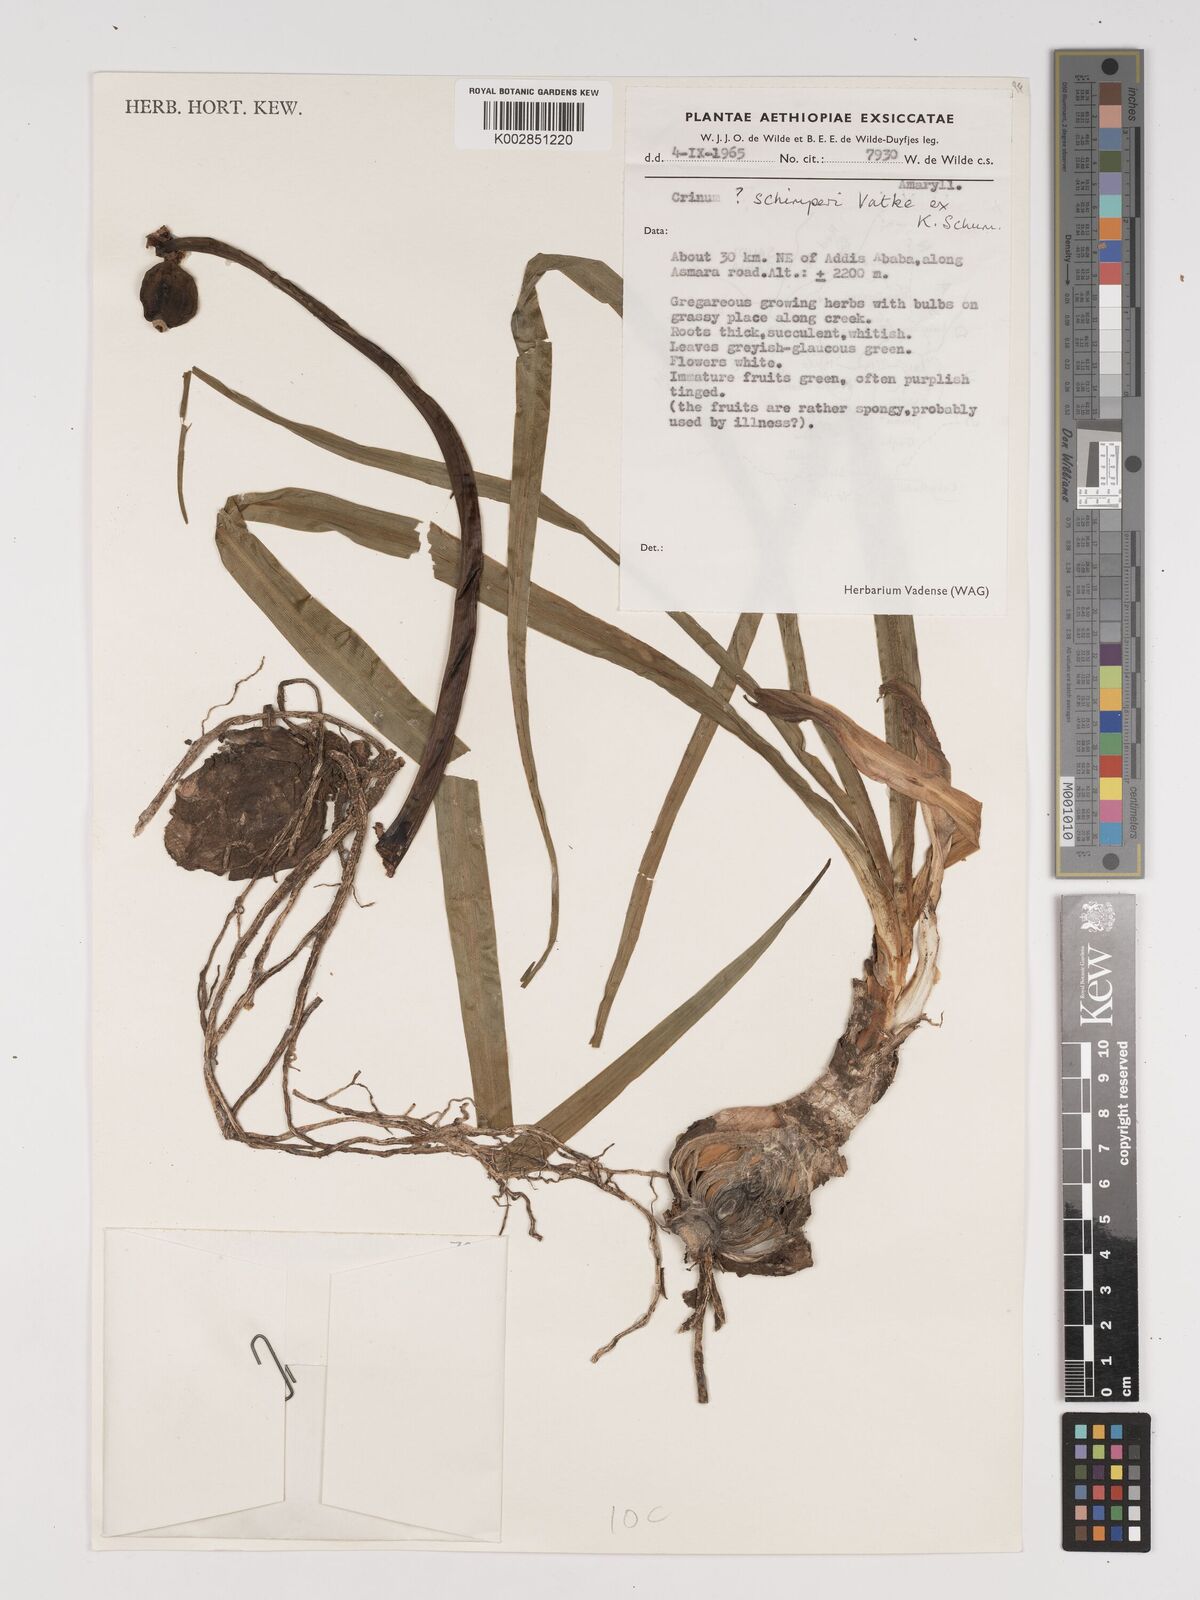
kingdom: Plantae
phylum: Tracheophyta
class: Liliopsida
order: Asparagales
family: Amaryllidaceae
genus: Crinum
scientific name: Crinum abyssinicum
